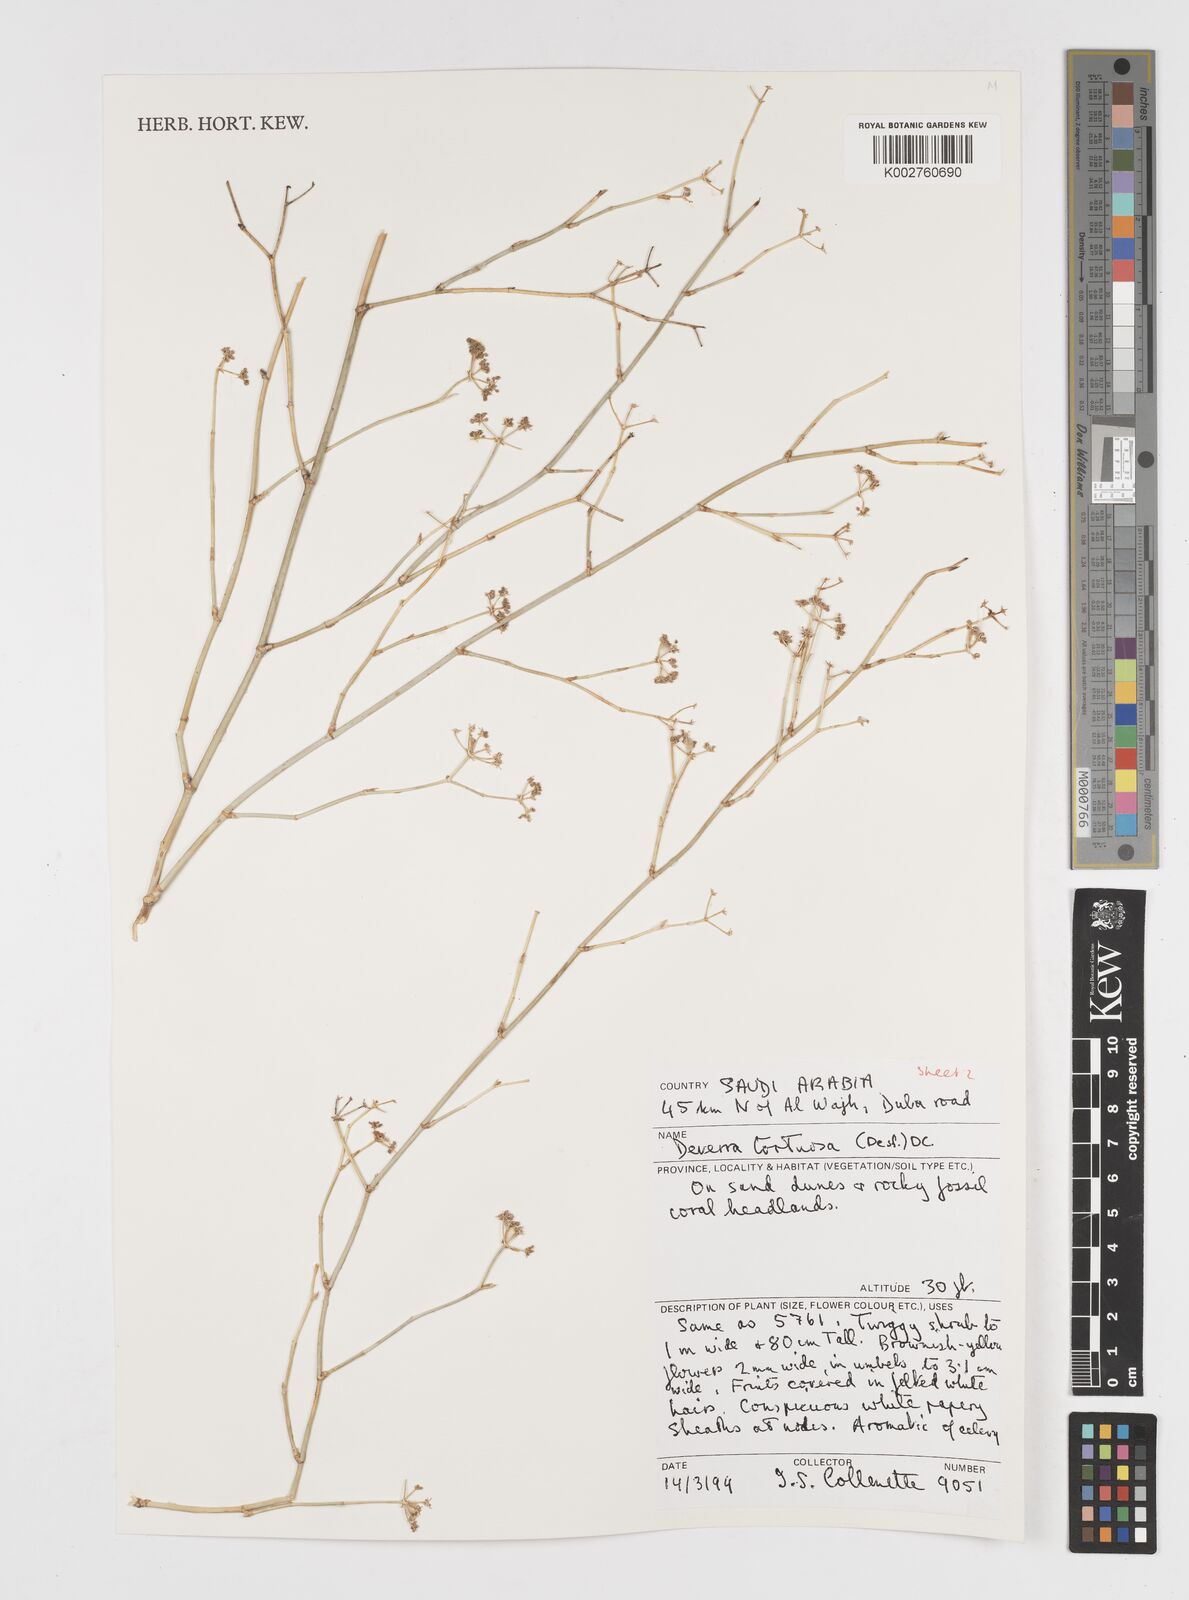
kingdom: Plantae
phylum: Tracheophyta
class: Magnoliopsida
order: Apiales
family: Apiaceae
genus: Deverra
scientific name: Deverra tortuosa
